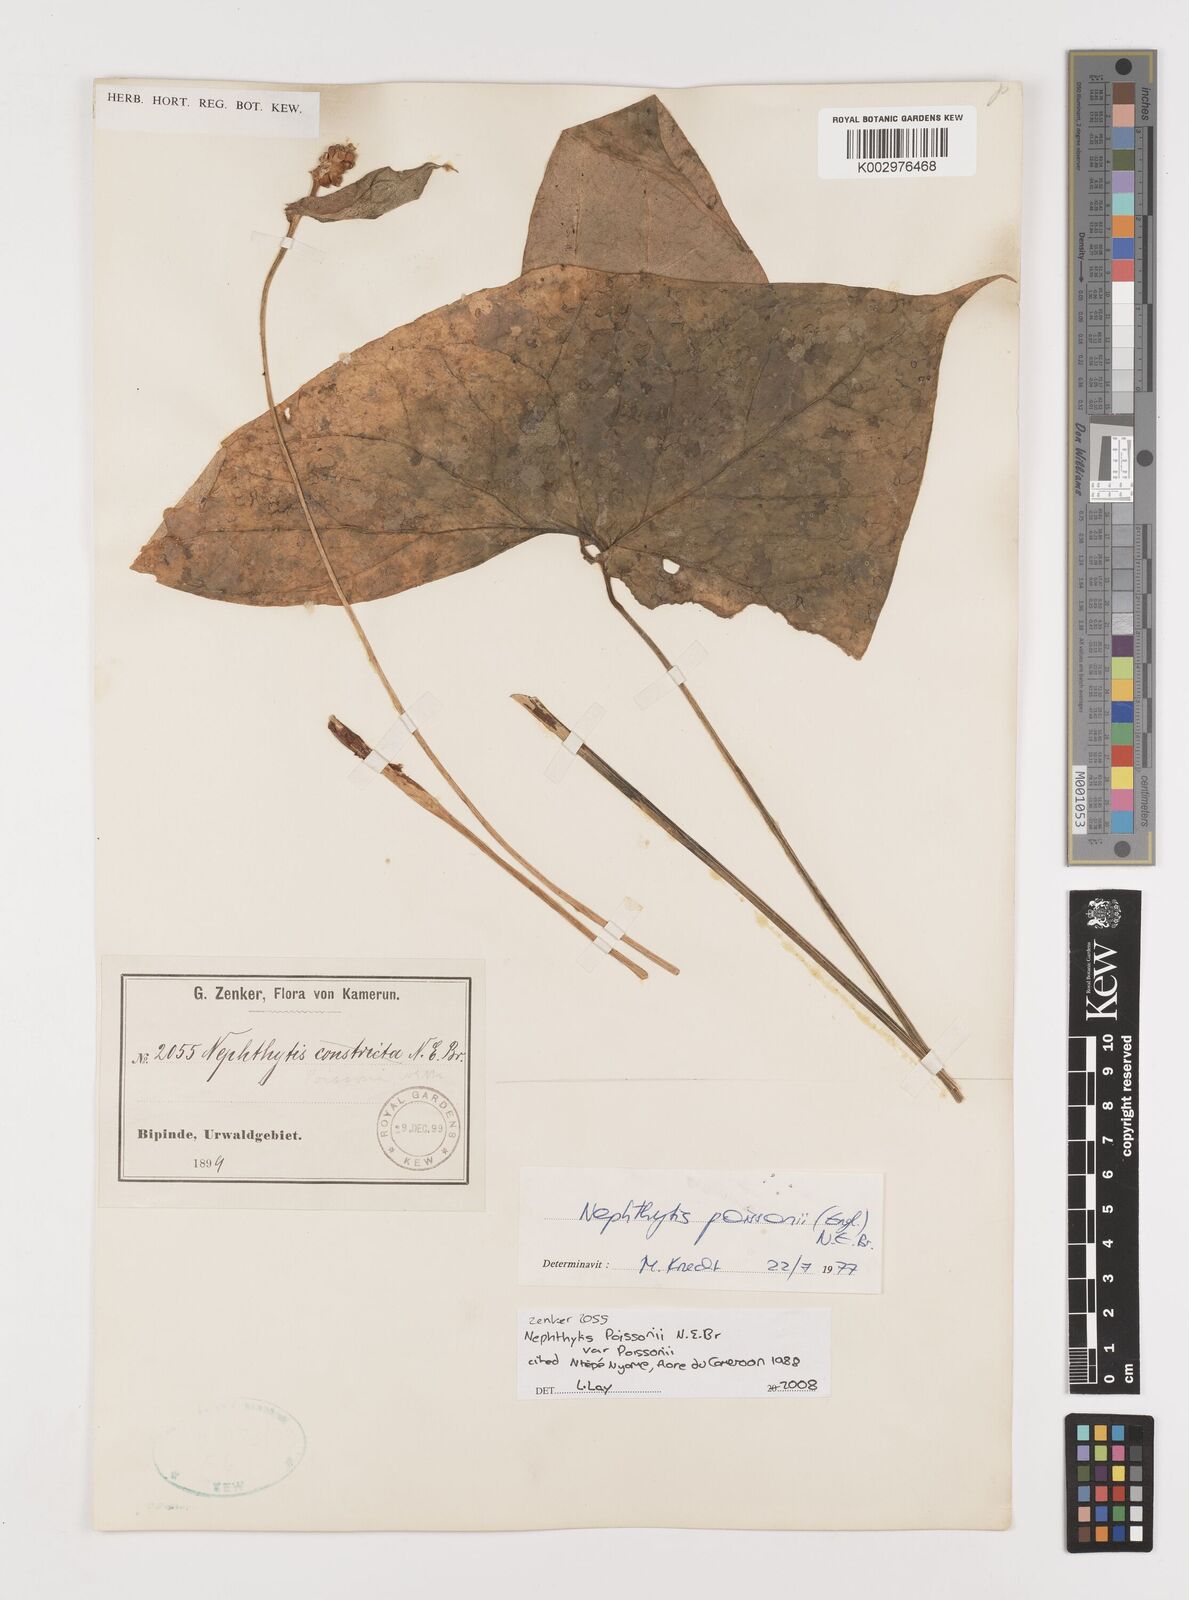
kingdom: Plantae
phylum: Tracheophyta
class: Liliopsida
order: Alismatales
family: Araceae
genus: Nephthytis
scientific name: Nephthytis poissonii
